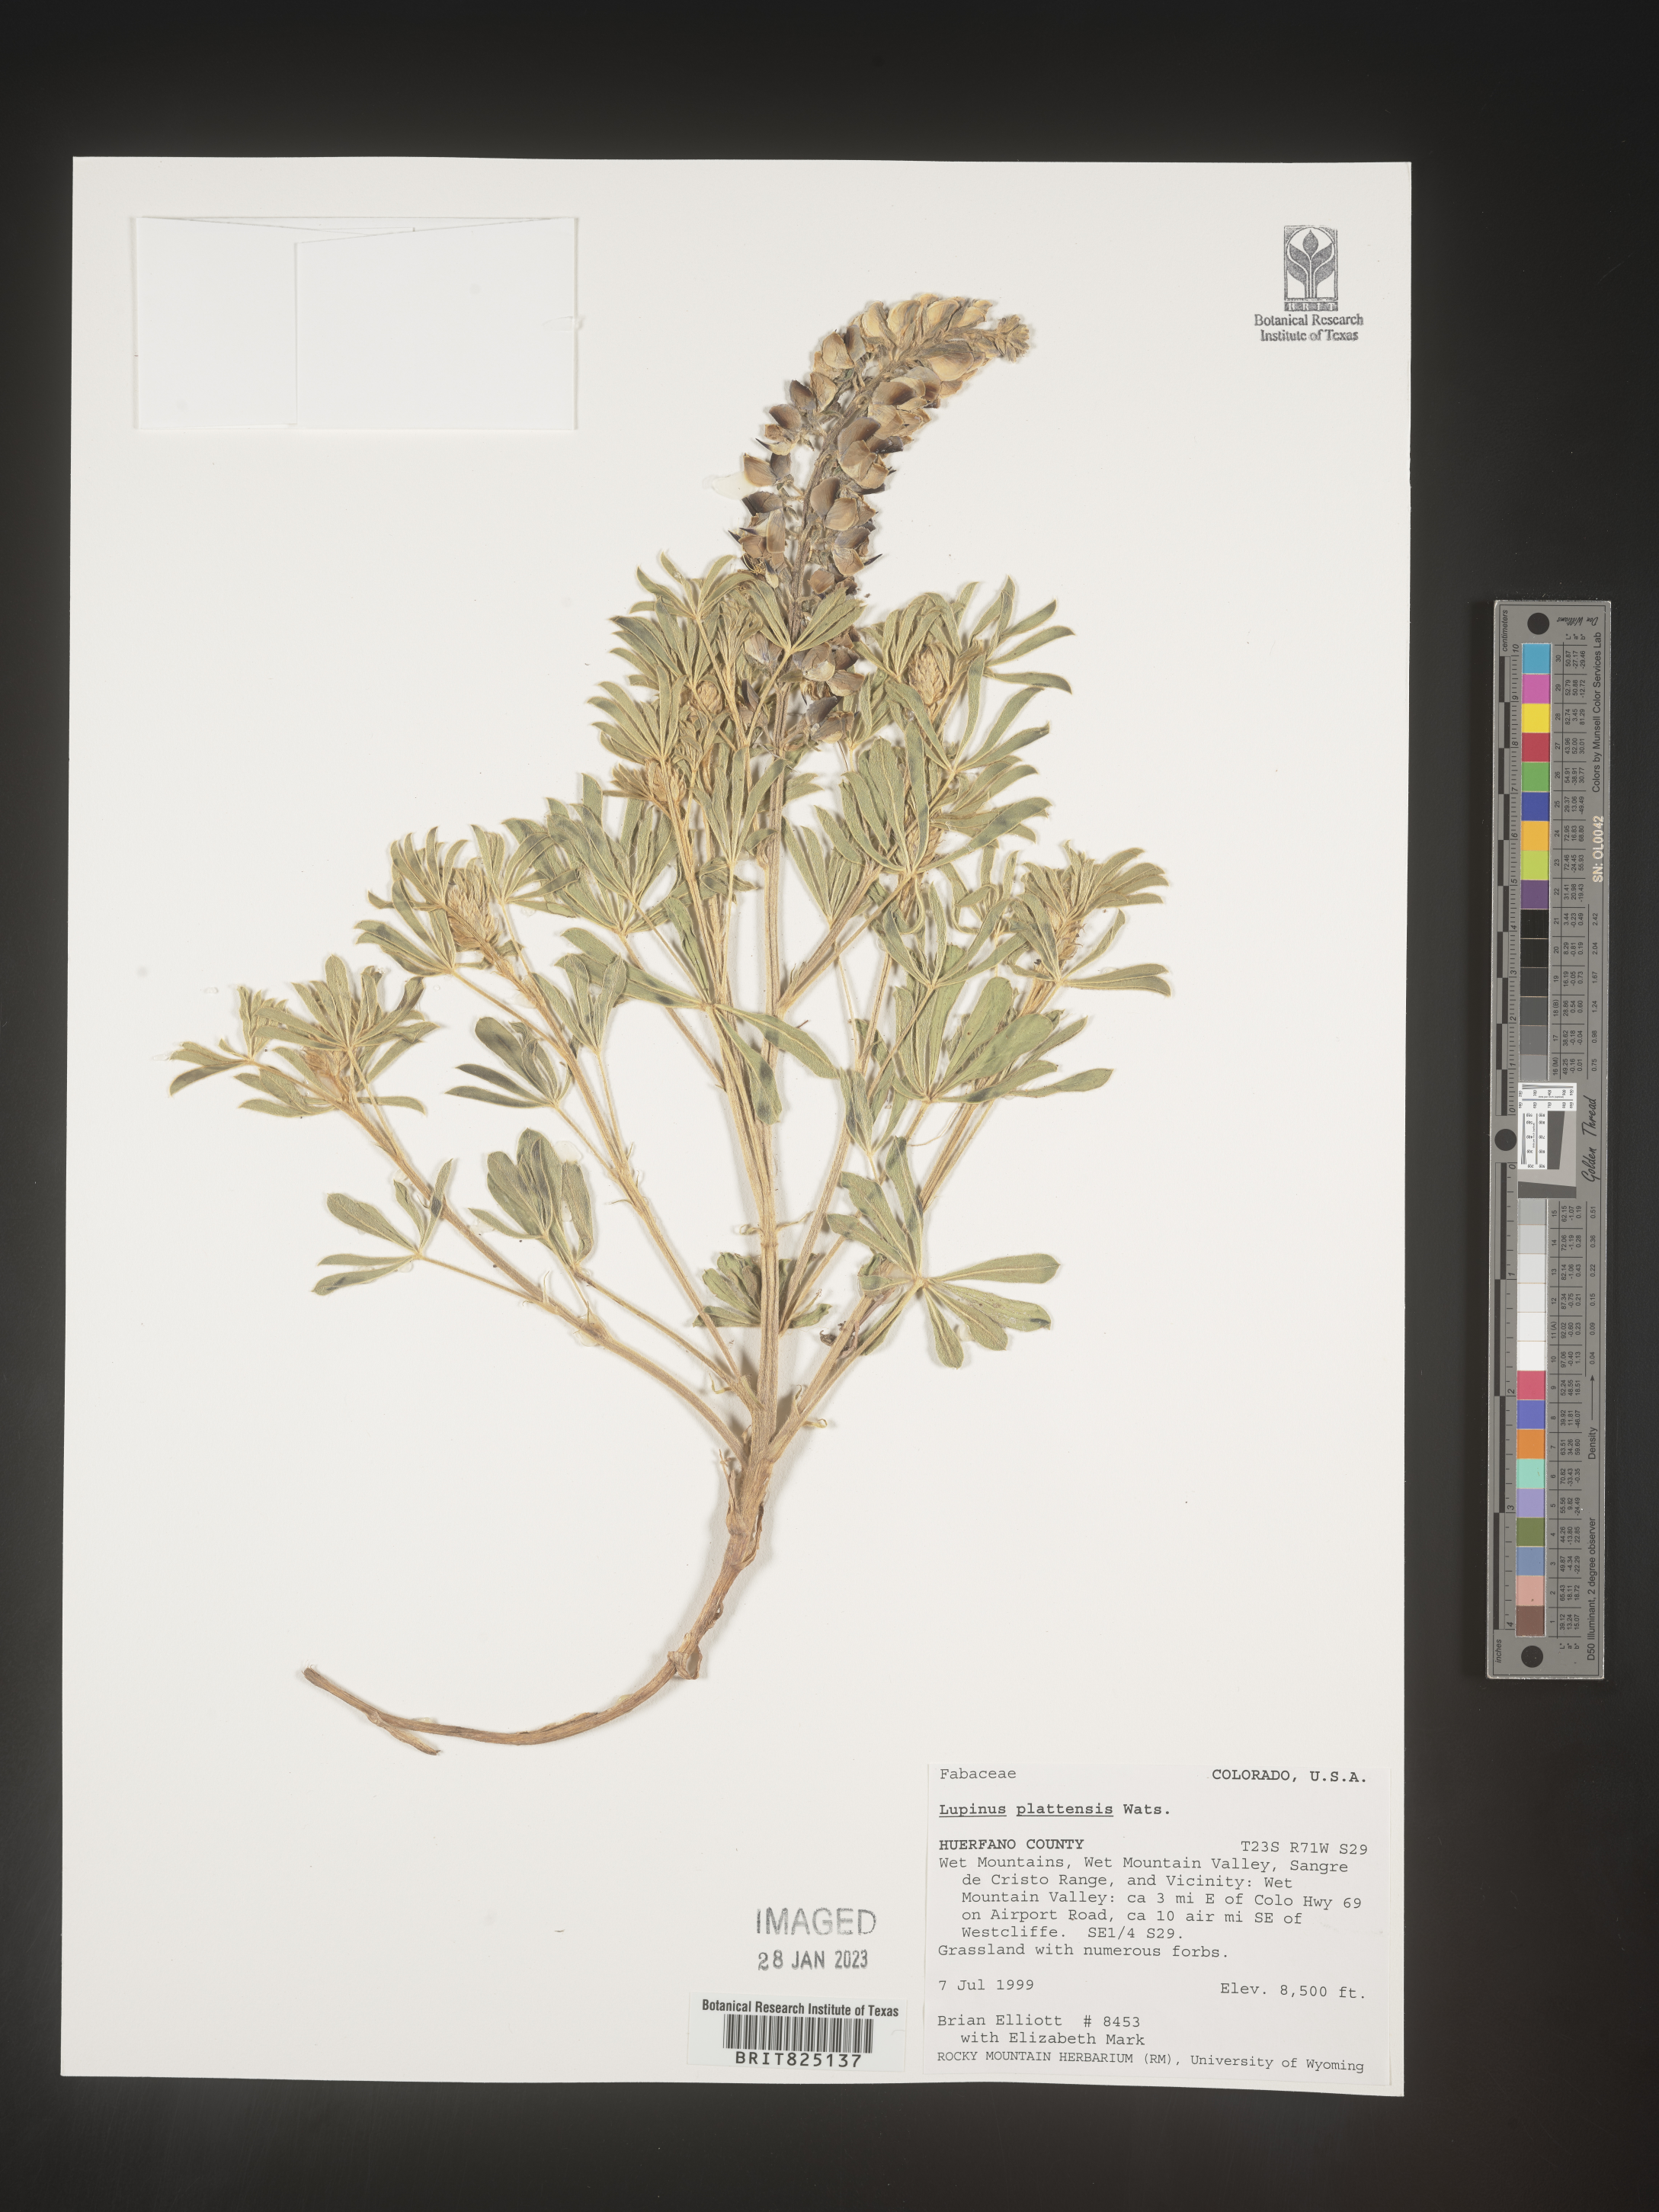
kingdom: Plantae
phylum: Tracheophyta
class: Magnoliopsida
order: Fabales
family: Fabaceae
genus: Lupinus
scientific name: Lupinus plattensis
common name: Platte lupine
